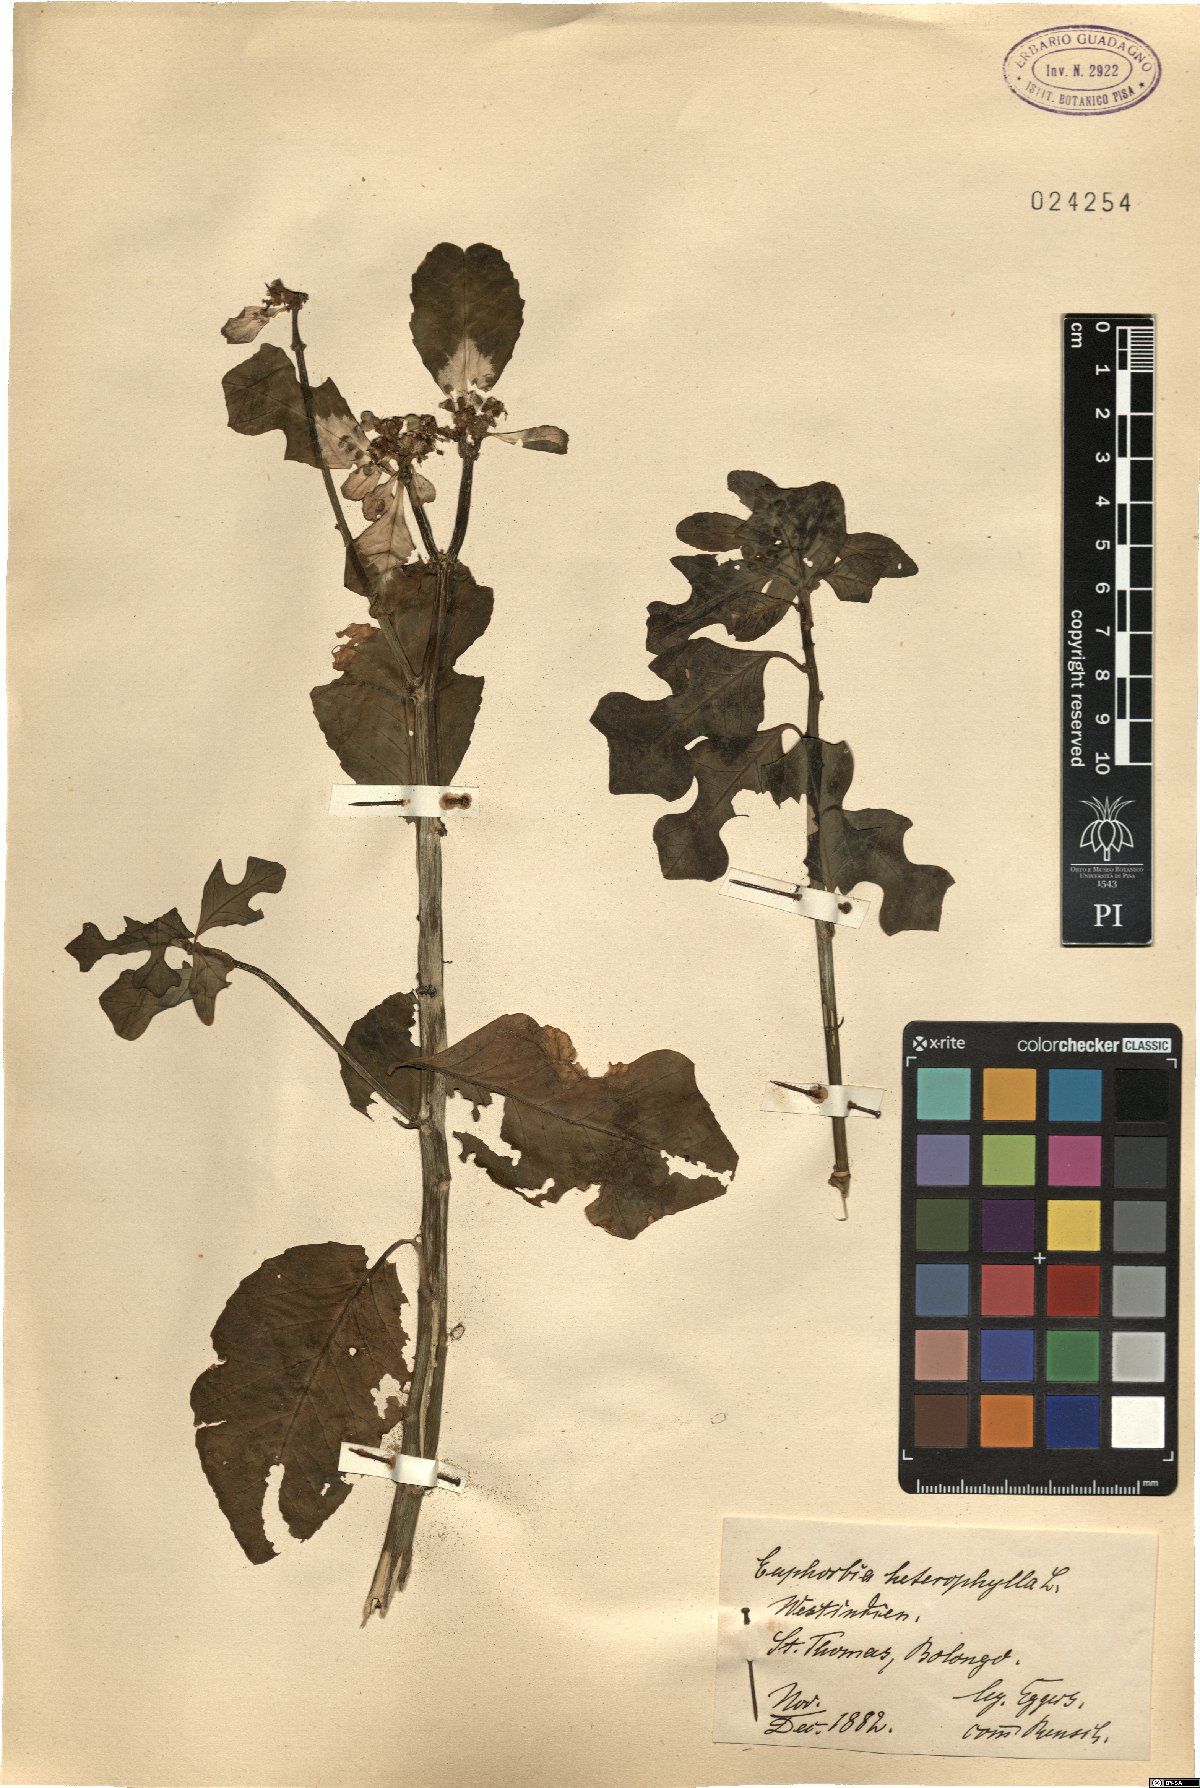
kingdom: Plantae
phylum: Tracheophyta
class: Magnoliopsida
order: Malpighiales
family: Euphorbiaceae
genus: Euphorbia
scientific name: Euphorbia heterophylla
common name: Mexican fireplant
